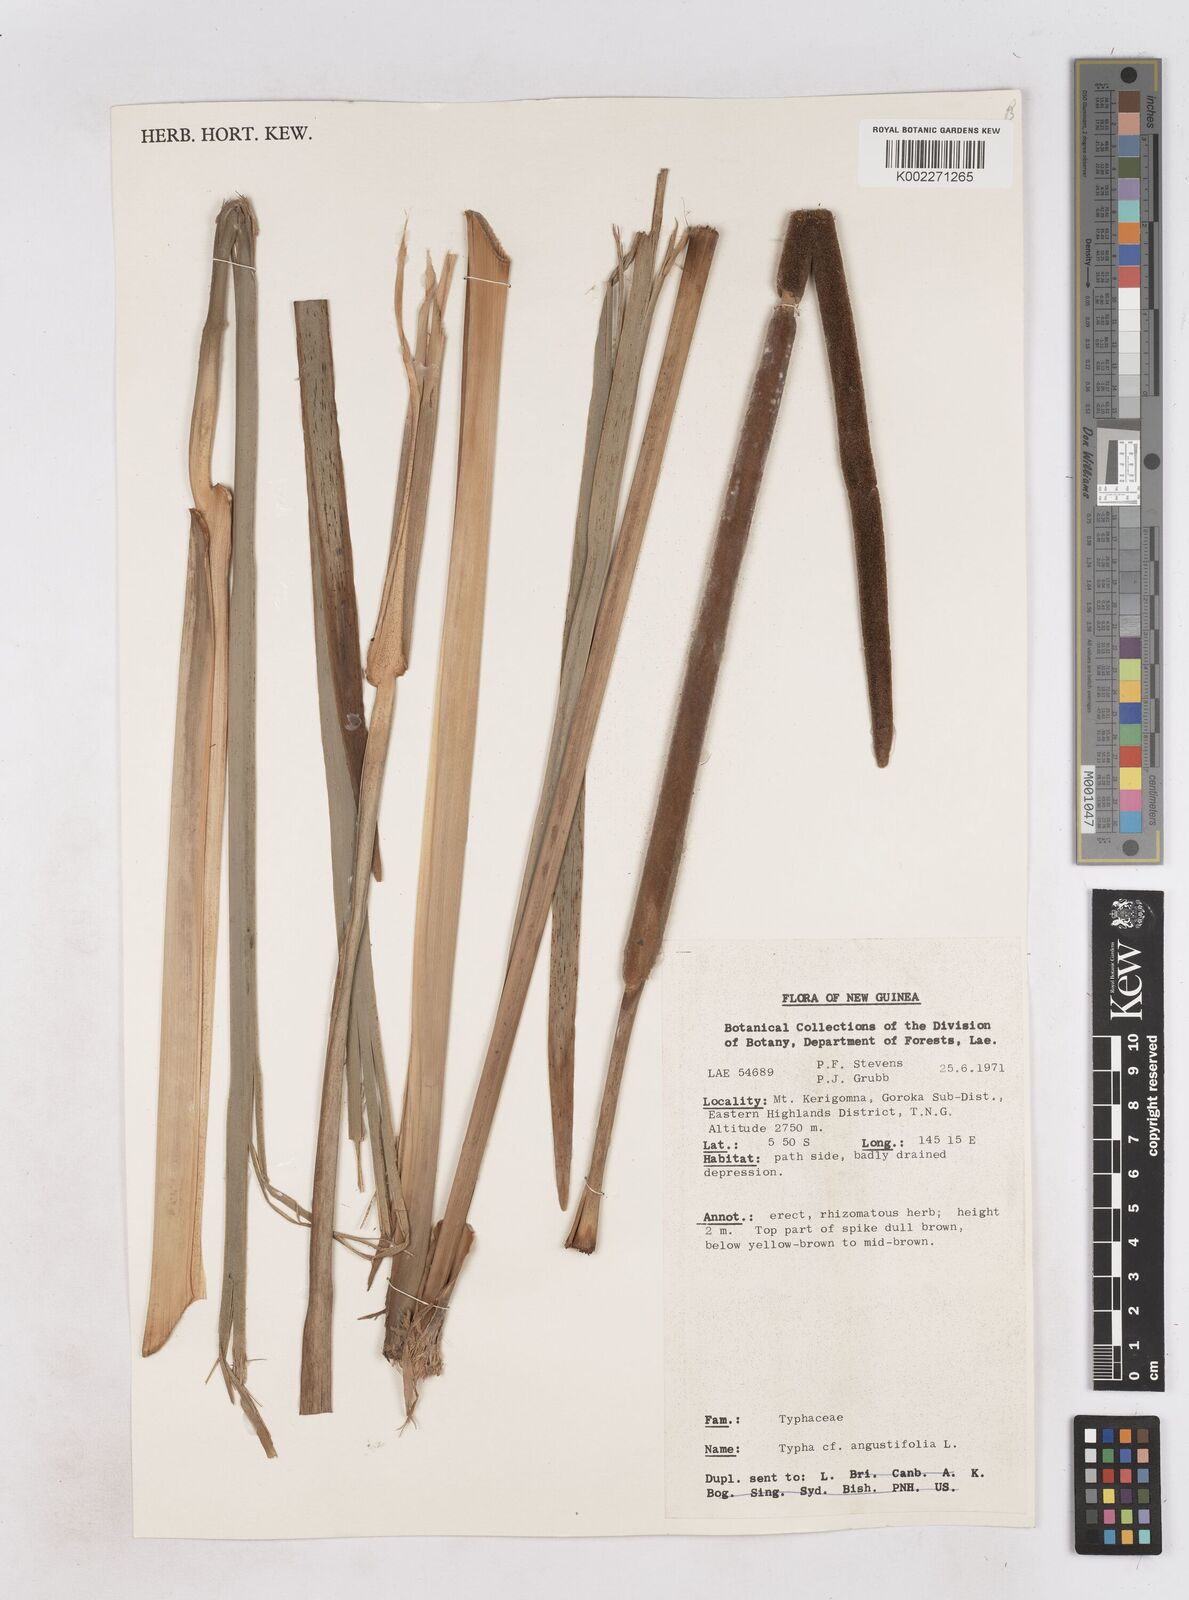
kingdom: Plantae
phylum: Tracheophyta
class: Liliopsida
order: Poales
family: Typhaceae
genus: Typha
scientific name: Typha angustifolia
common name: Lesser bulrush
